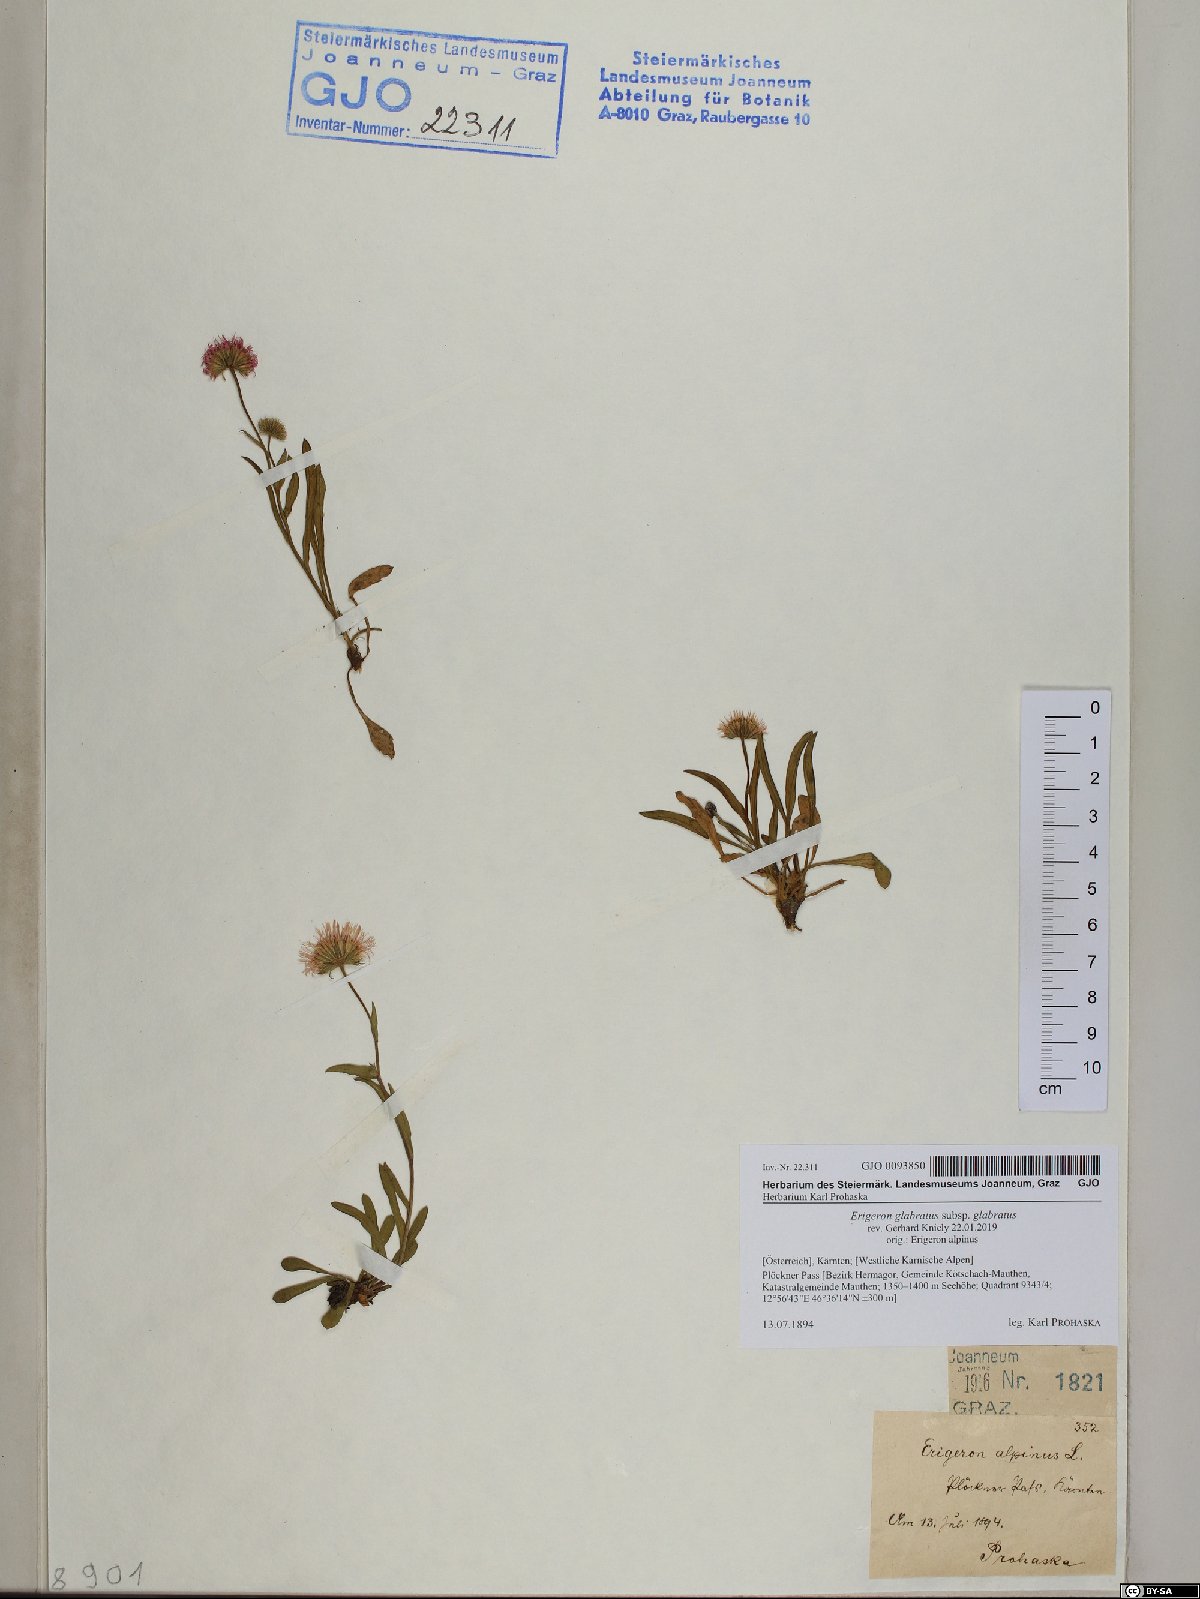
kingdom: Plantae
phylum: Tracheophyta
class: Magnoliopsida
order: Asterales
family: Asteraceae
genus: Erigeron
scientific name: Erigeron glabratus
